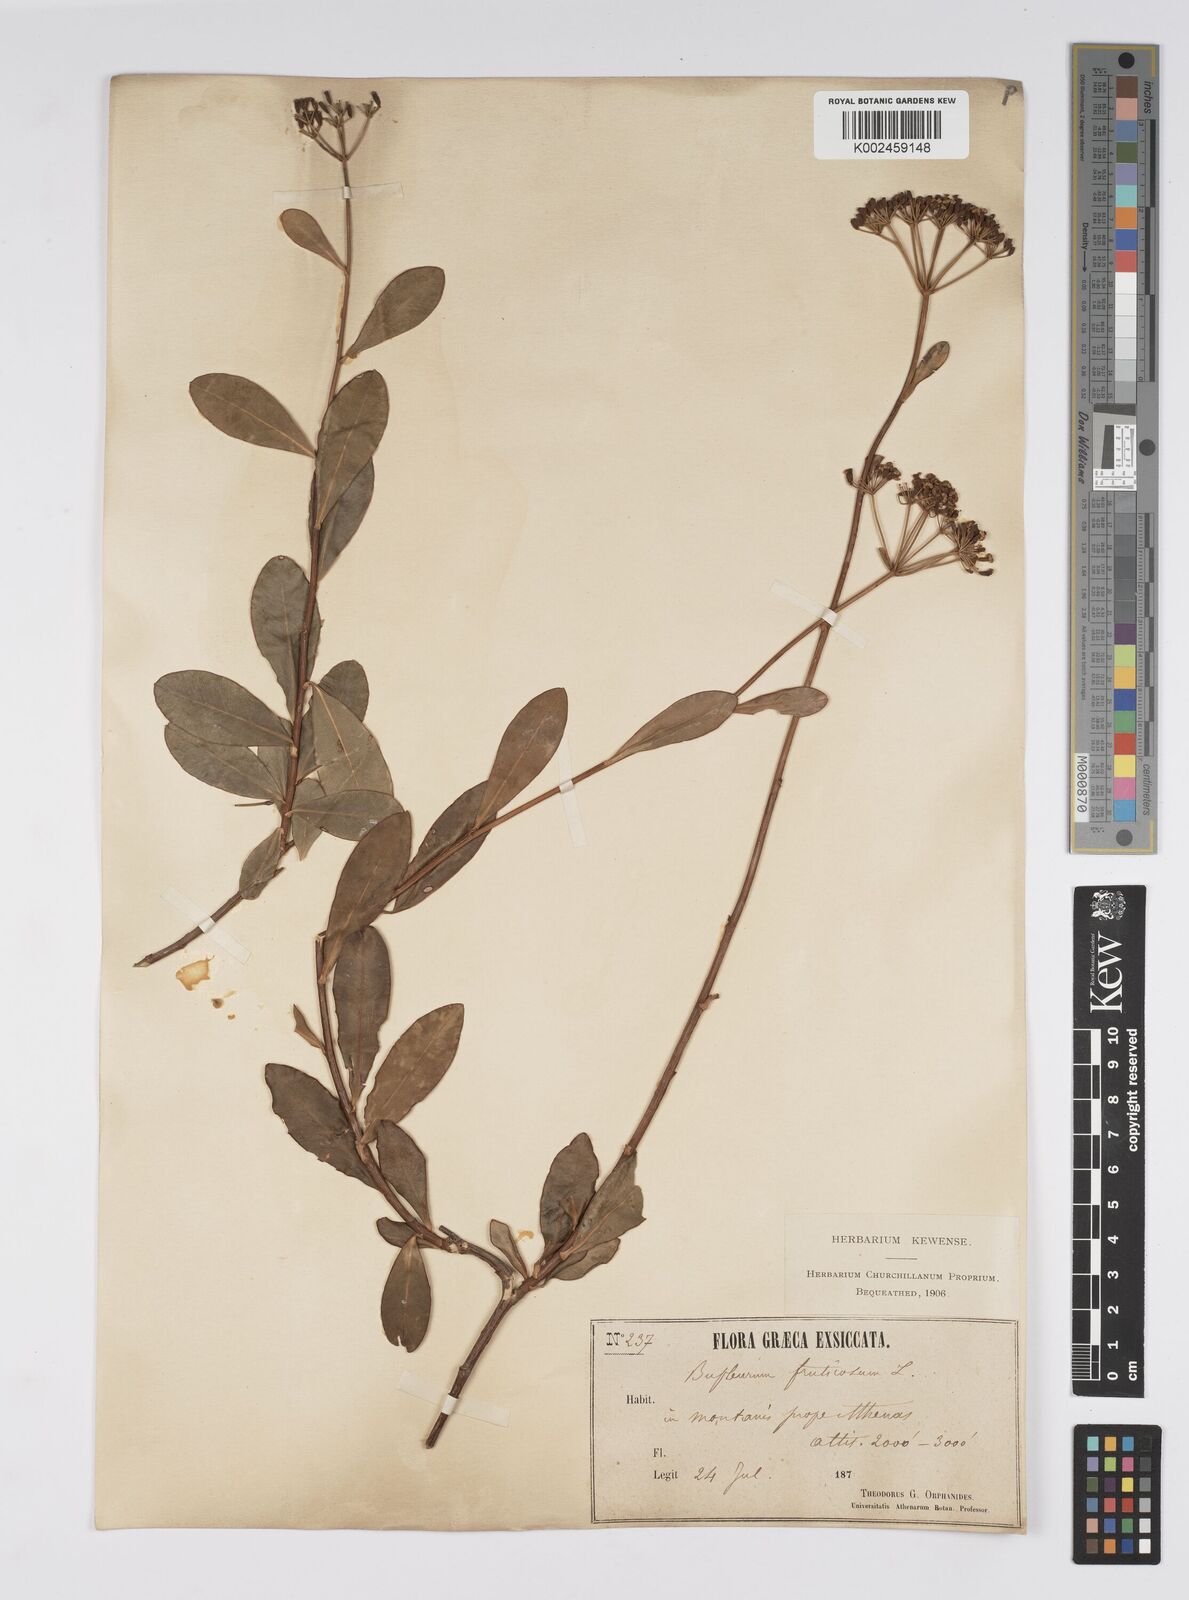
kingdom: Plantae
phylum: Tracheophyta
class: Magnoliopsida
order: Apiales
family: Apiaceae
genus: Bupleurum
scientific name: Bupleurum fruticosum
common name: Shrubby hare's-ear
